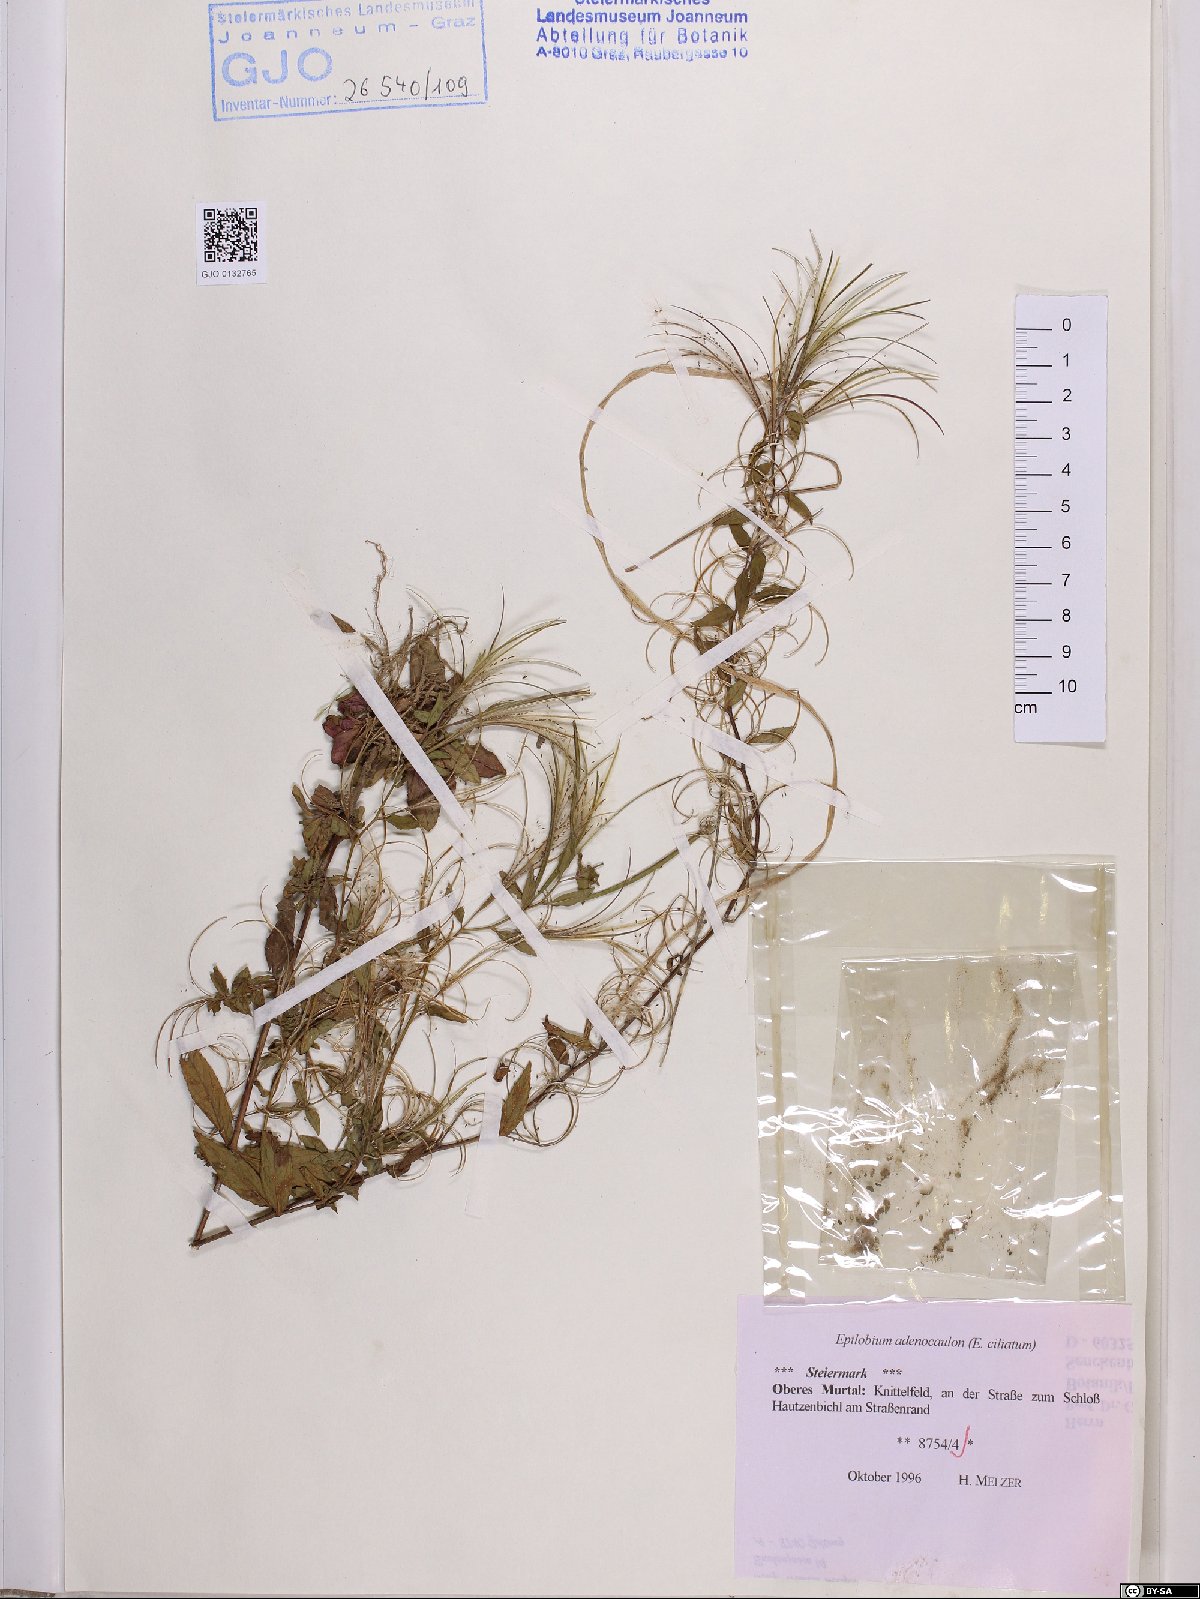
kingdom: Plantae
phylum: Tracheophyta
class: Magnoliopsida
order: Myrtales
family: Onagraceae
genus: Epilobium
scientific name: Epilobium ciliatum
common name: American willowherb
